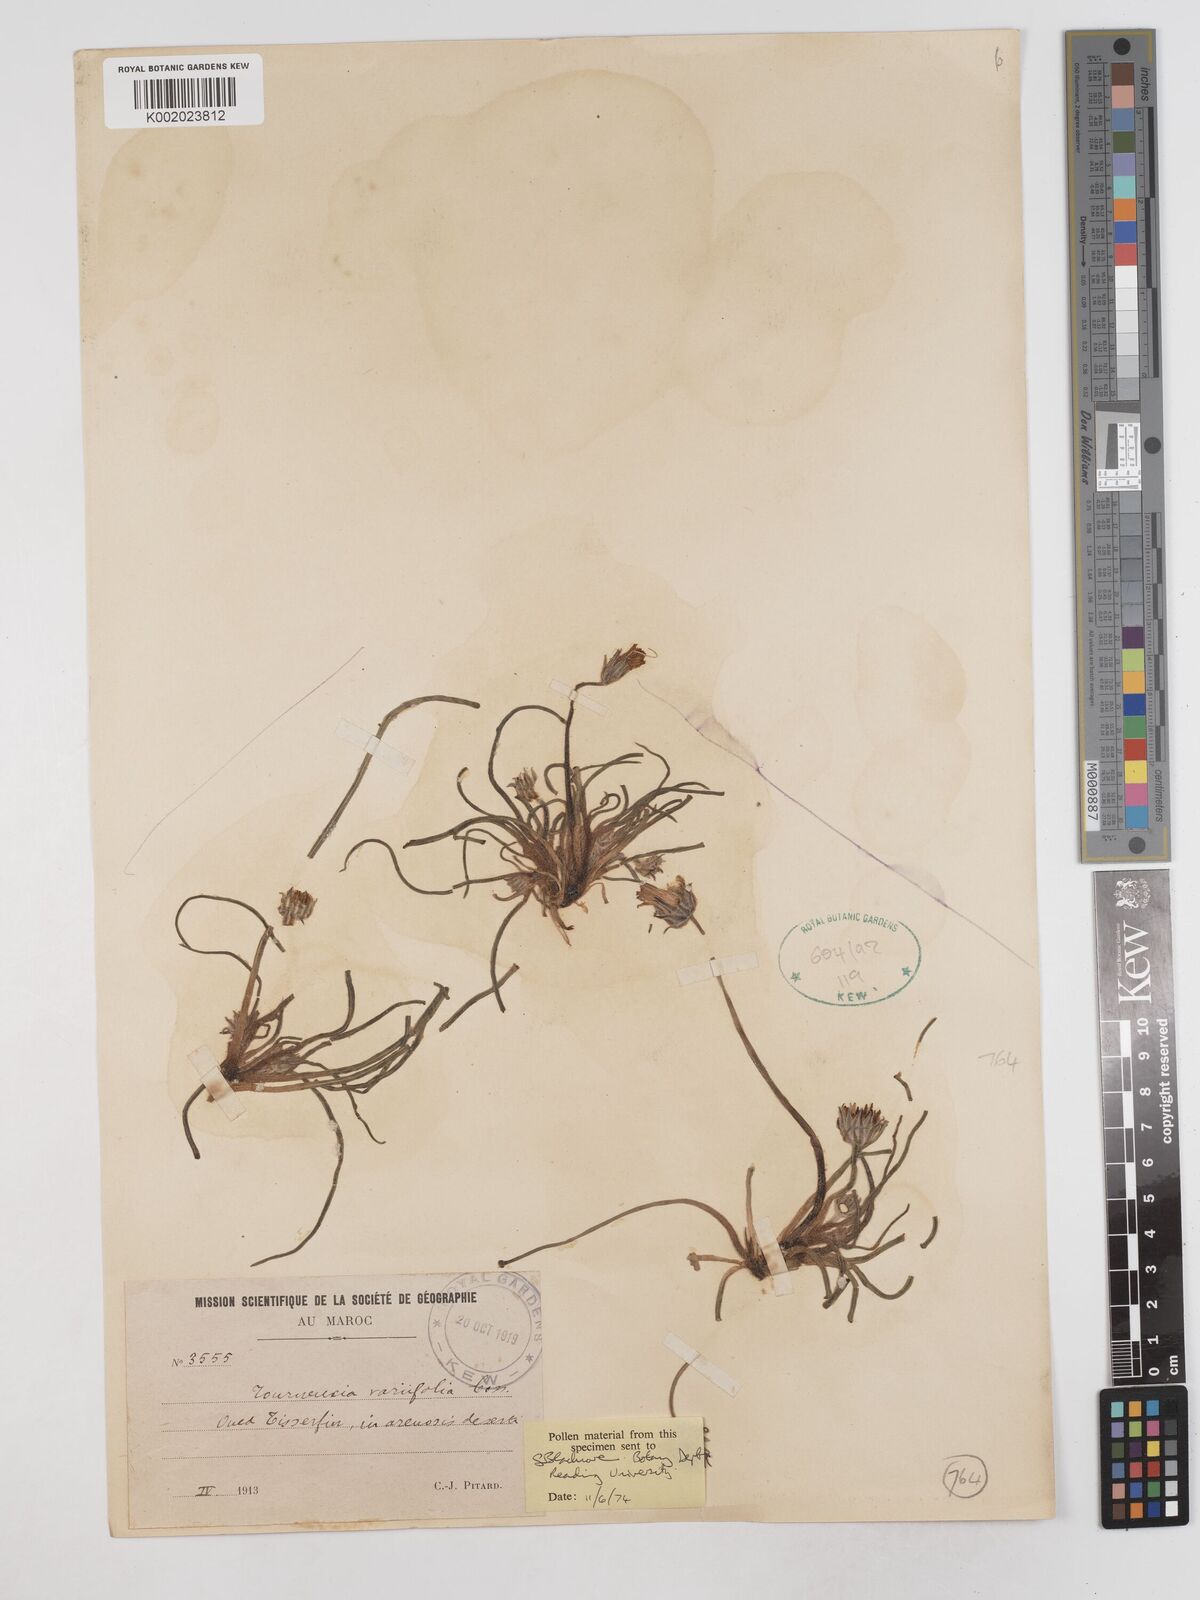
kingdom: Plantae
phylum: Tracheophyta
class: Magnoliopsida
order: Asterales
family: Asteraceae
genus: Tourneuxia
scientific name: Tourneuxia variifolia
